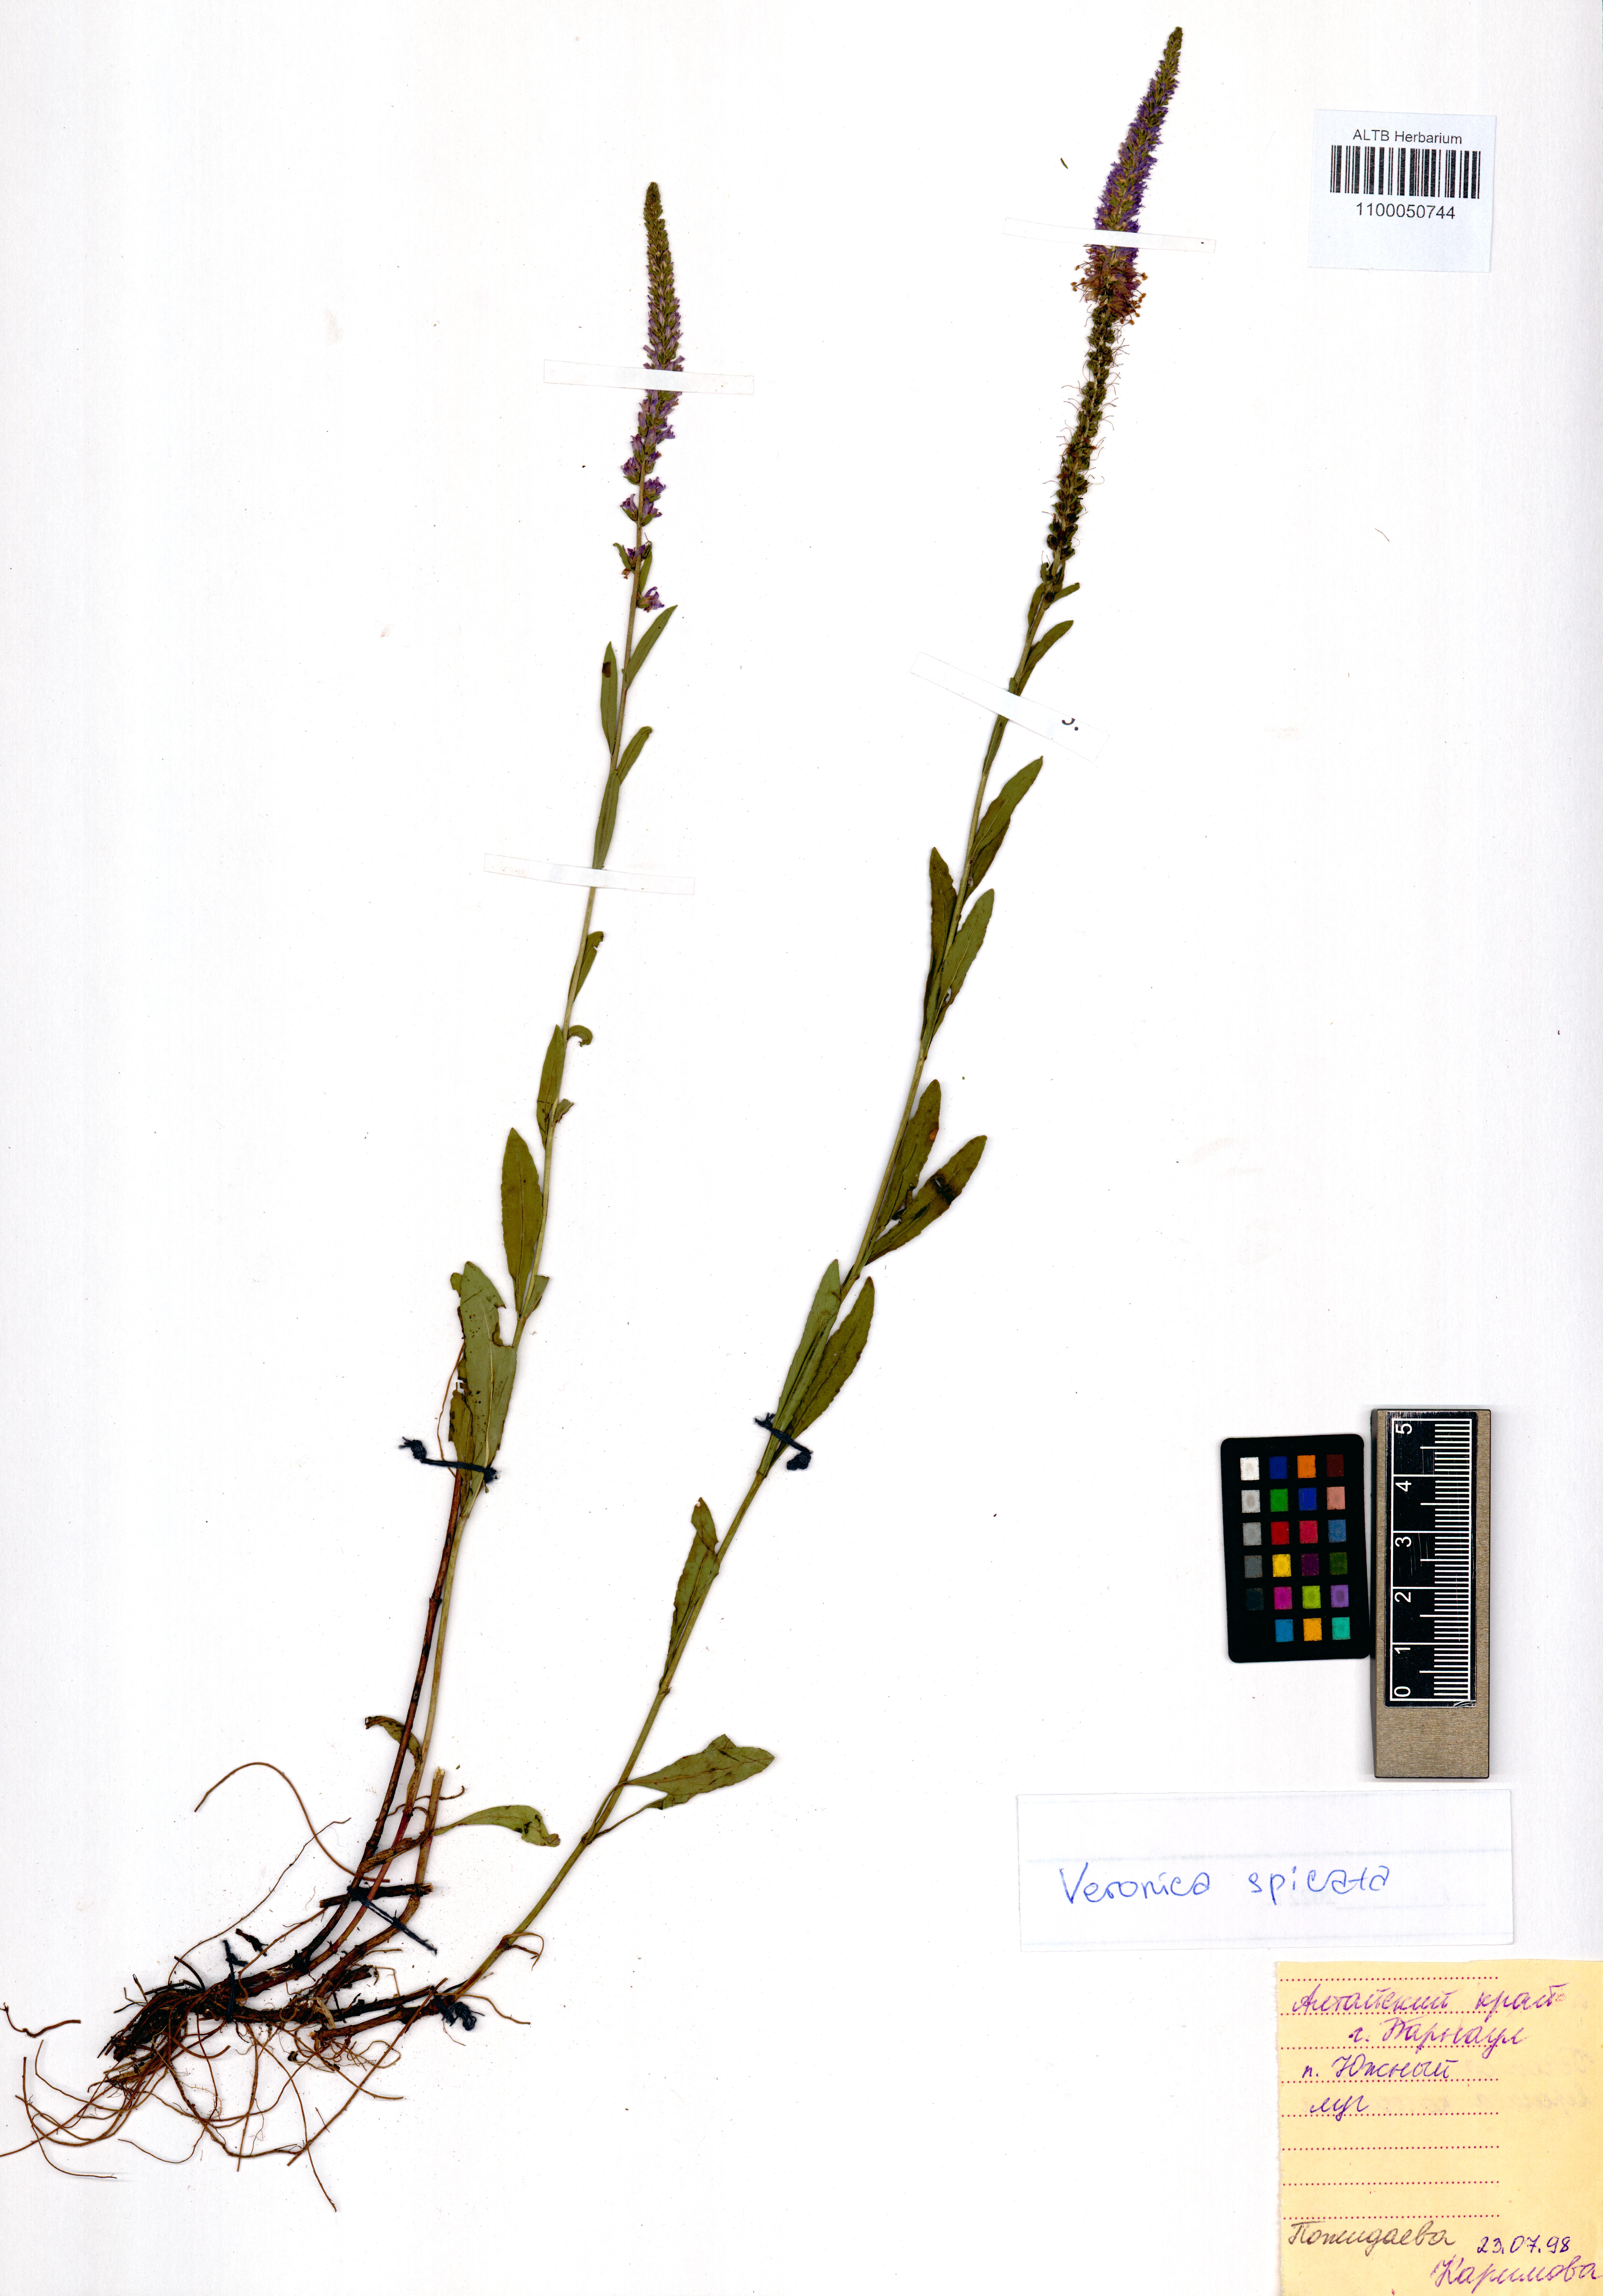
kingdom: Plantae
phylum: Tracheophyta
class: Magnoliopsida
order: Lamiales
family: Plantaginaceae
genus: Veronica
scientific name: Veronica spicata
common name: Spiked speedwell
